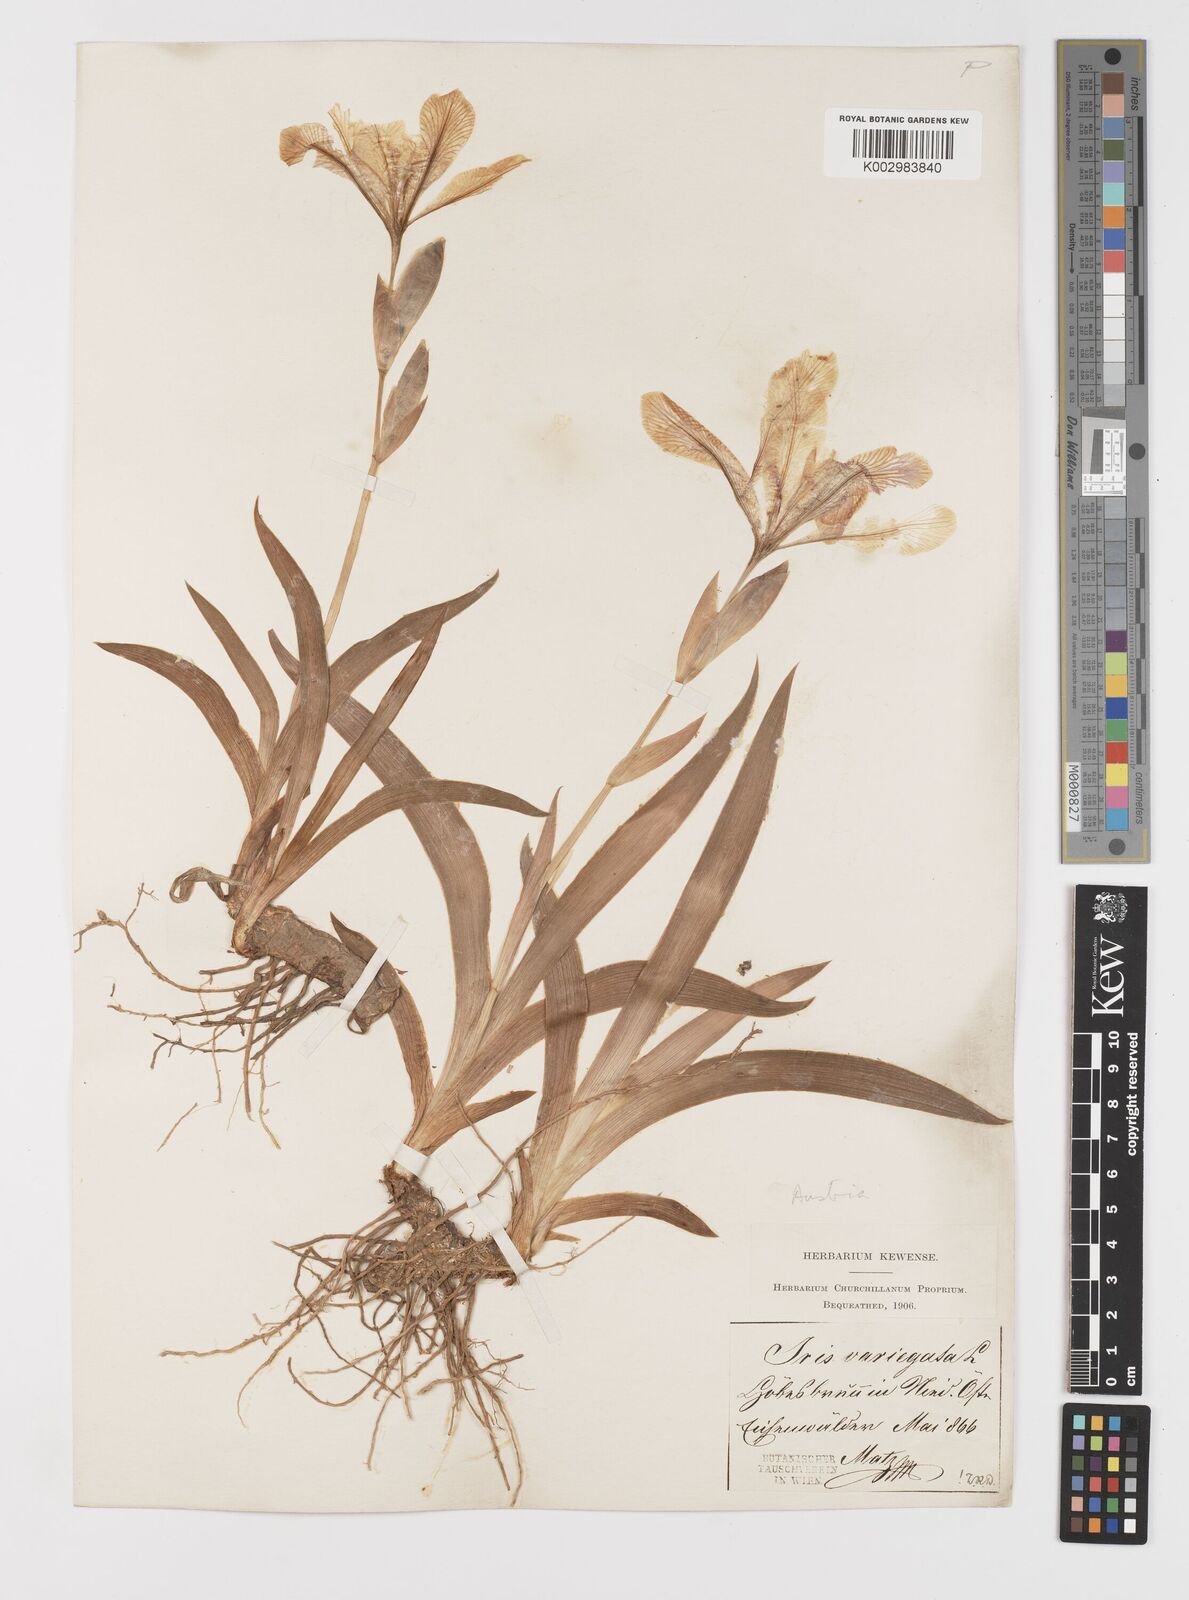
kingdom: Plantae
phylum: Tracheophyta
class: Liliopsida
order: Asparagales
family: Iridaceae
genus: Iris
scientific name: Iris variegata
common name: Hungarian iris
